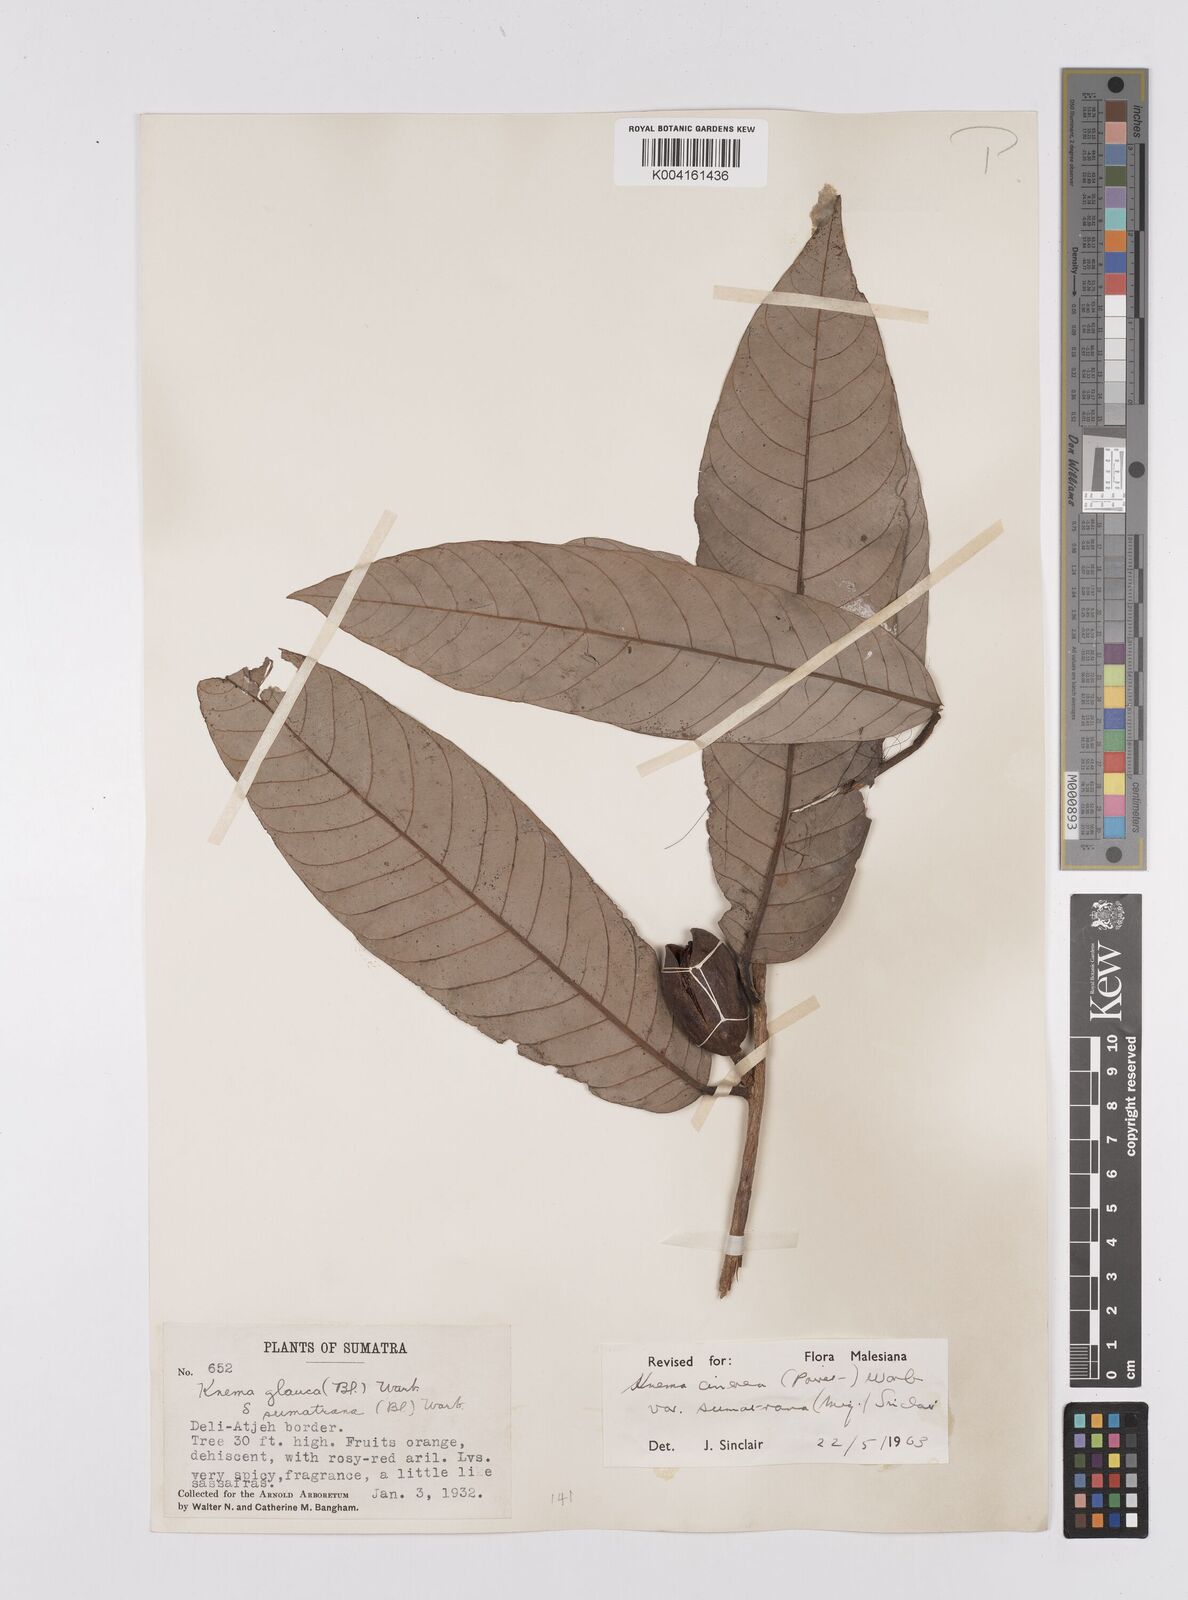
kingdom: Plantae
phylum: Tracheophyta
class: Magnoliopsida
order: Magnoliales
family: Myristicaceae
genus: Knema
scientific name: Knema
